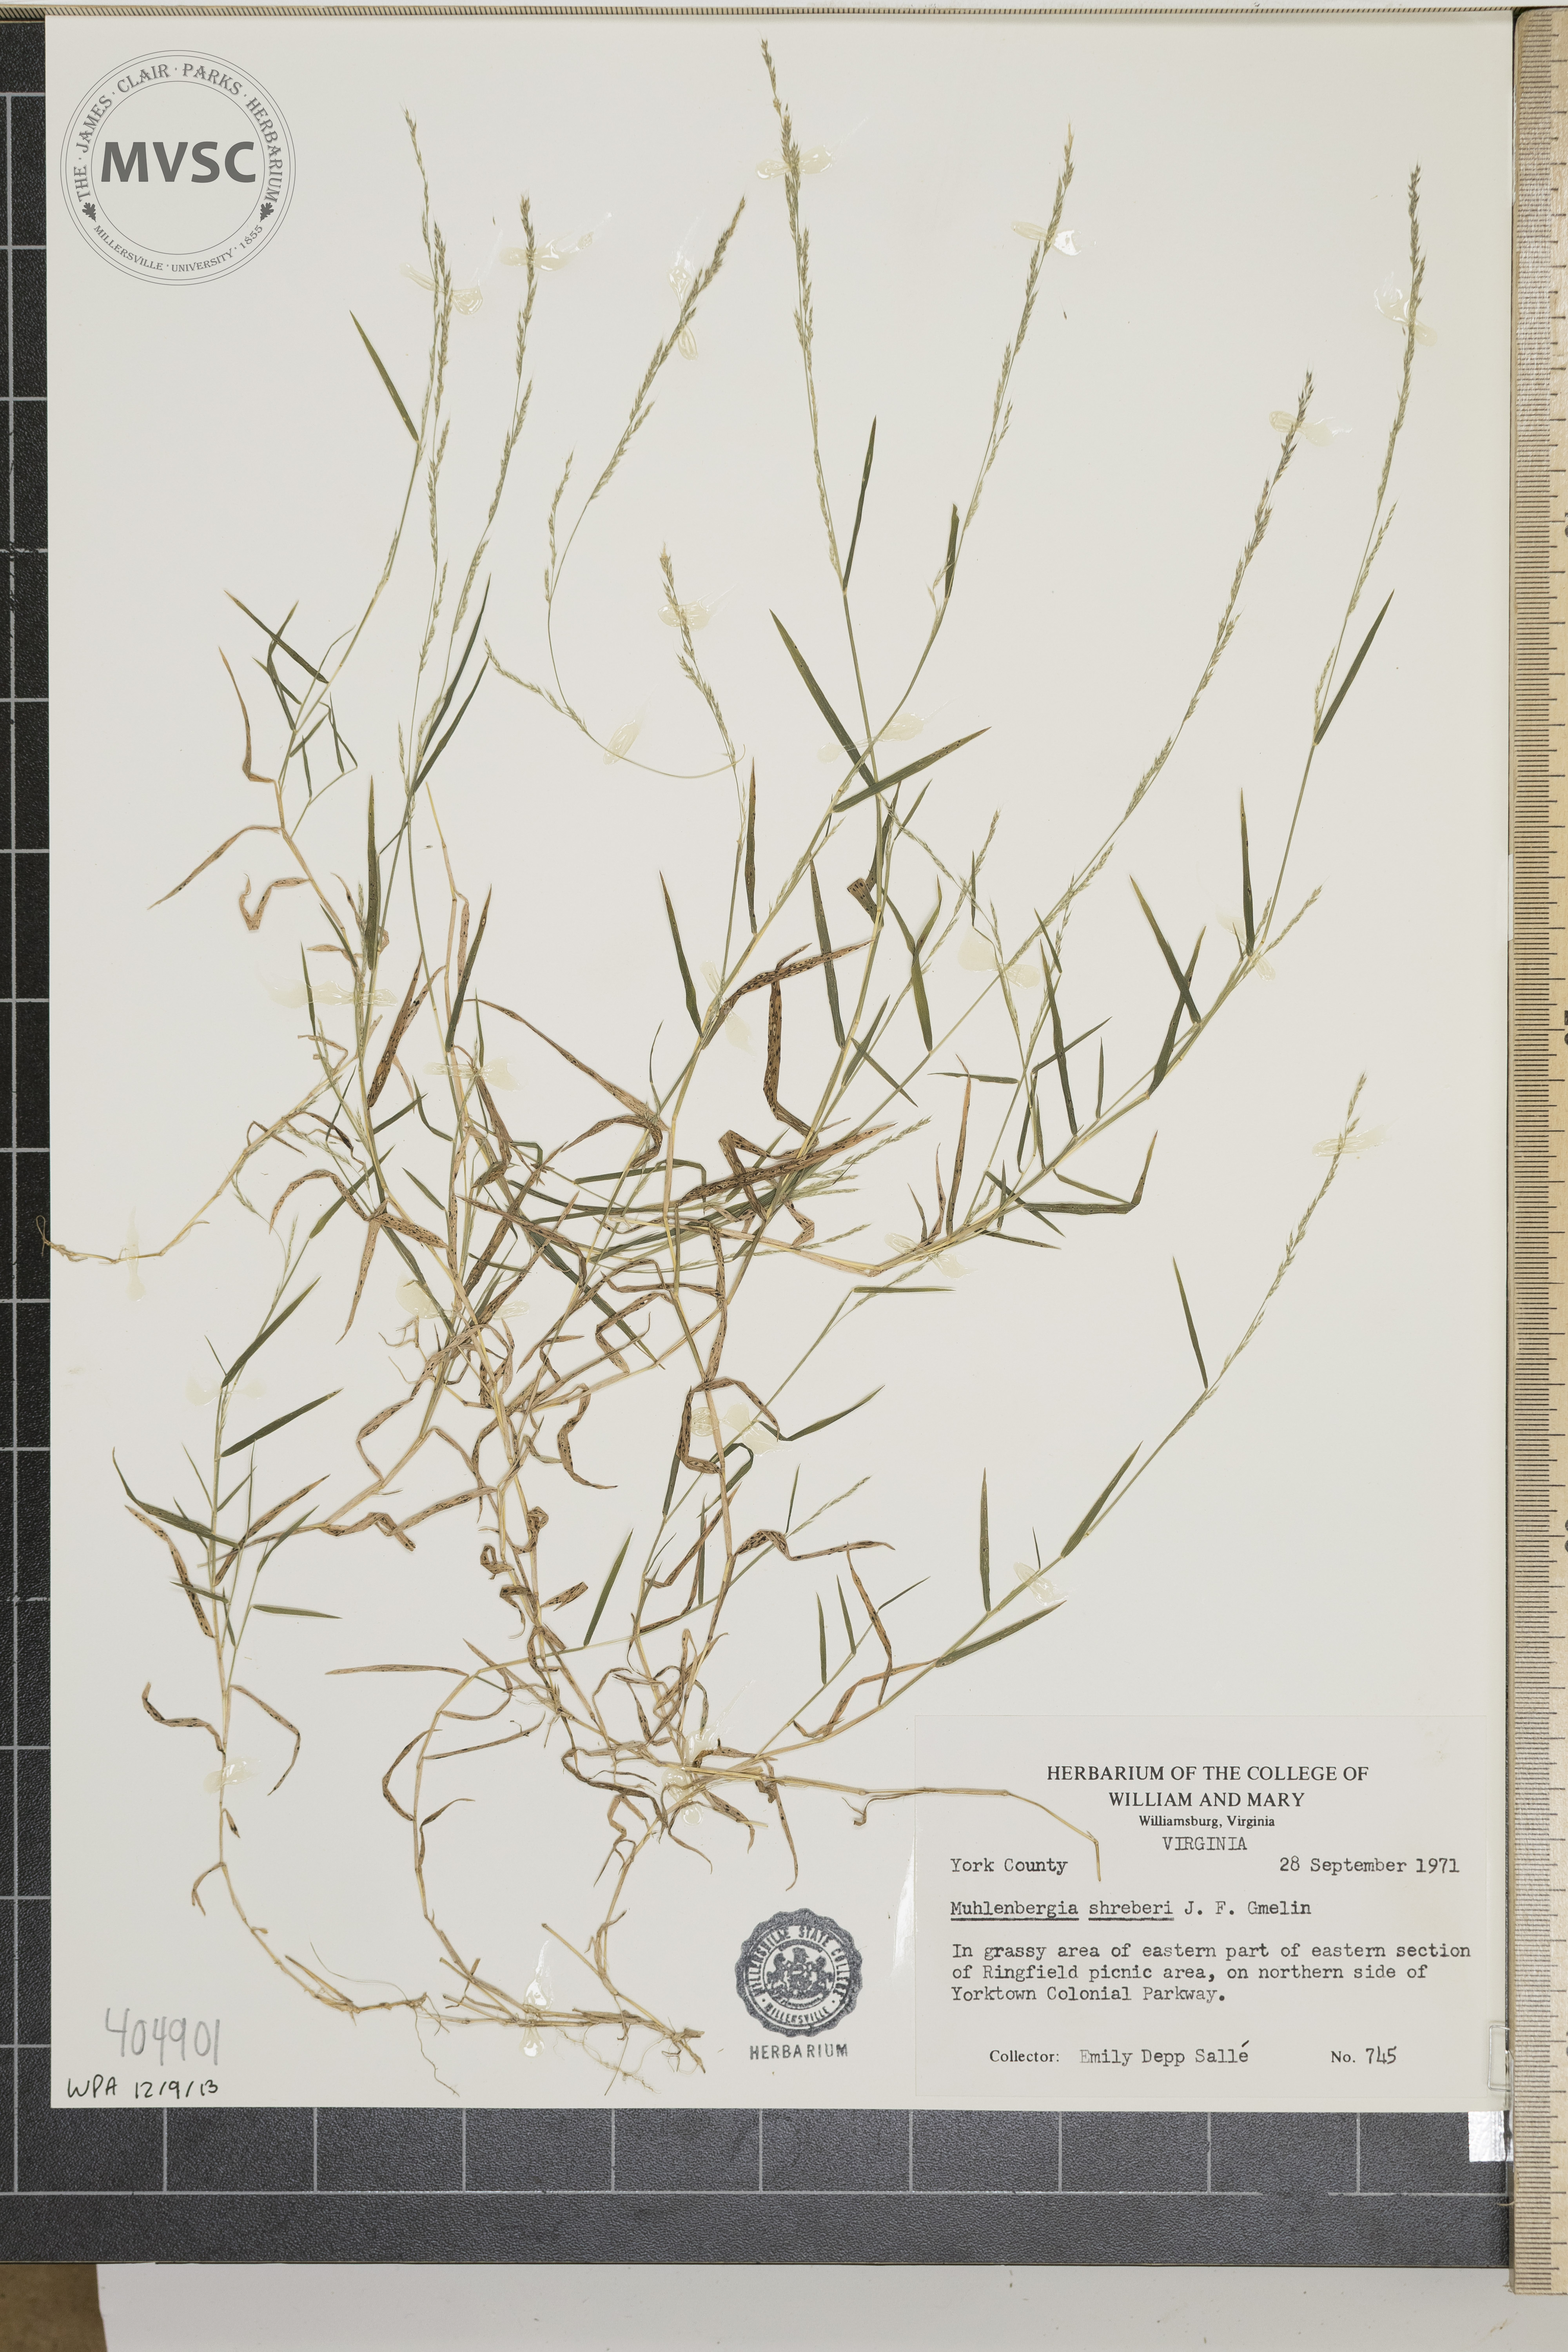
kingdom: Plantae
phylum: Tracheophyta
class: Liliopsida
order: Poales
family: Poaceae
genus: Muhlenbergia
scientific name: Muhlenbergia schreberi
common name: Nimblewill
